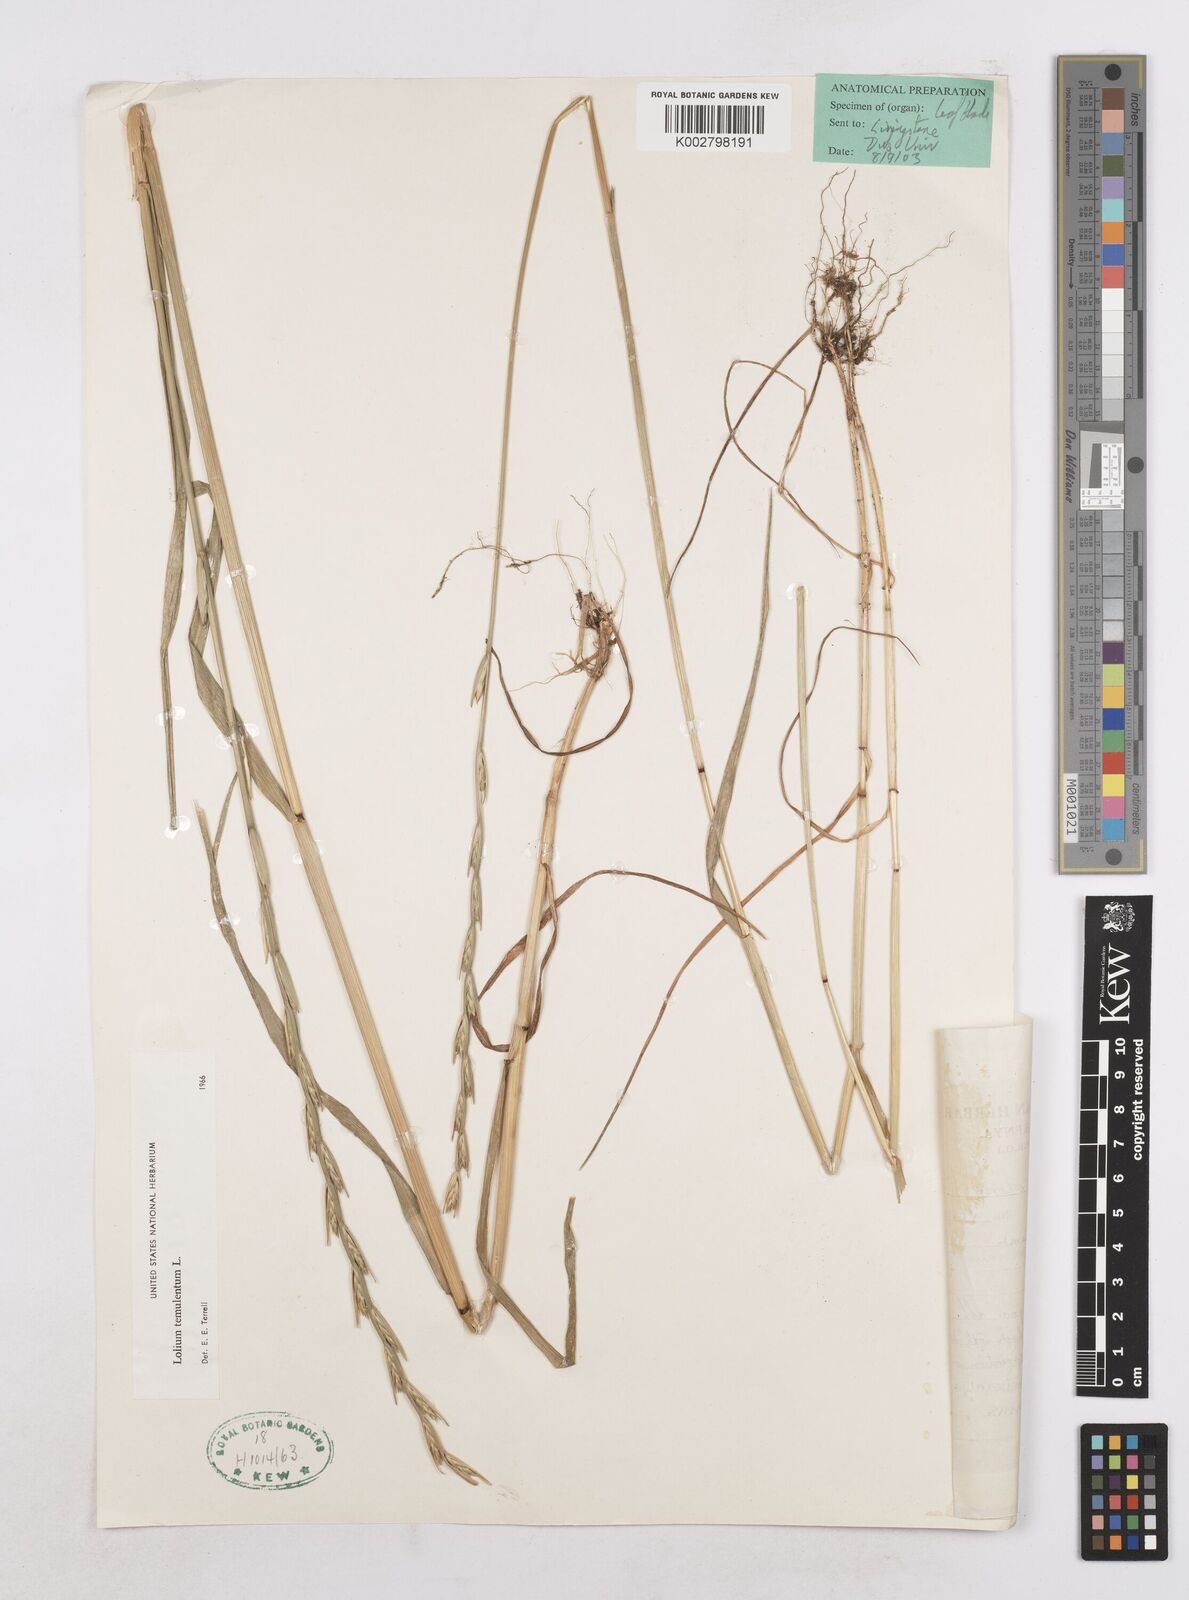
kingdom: Plantae
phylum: Tracheophyta
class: Liliopsida
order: Poales
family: Poaceae
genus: Lolium
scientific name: Lolium temulentum
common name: Darnel
